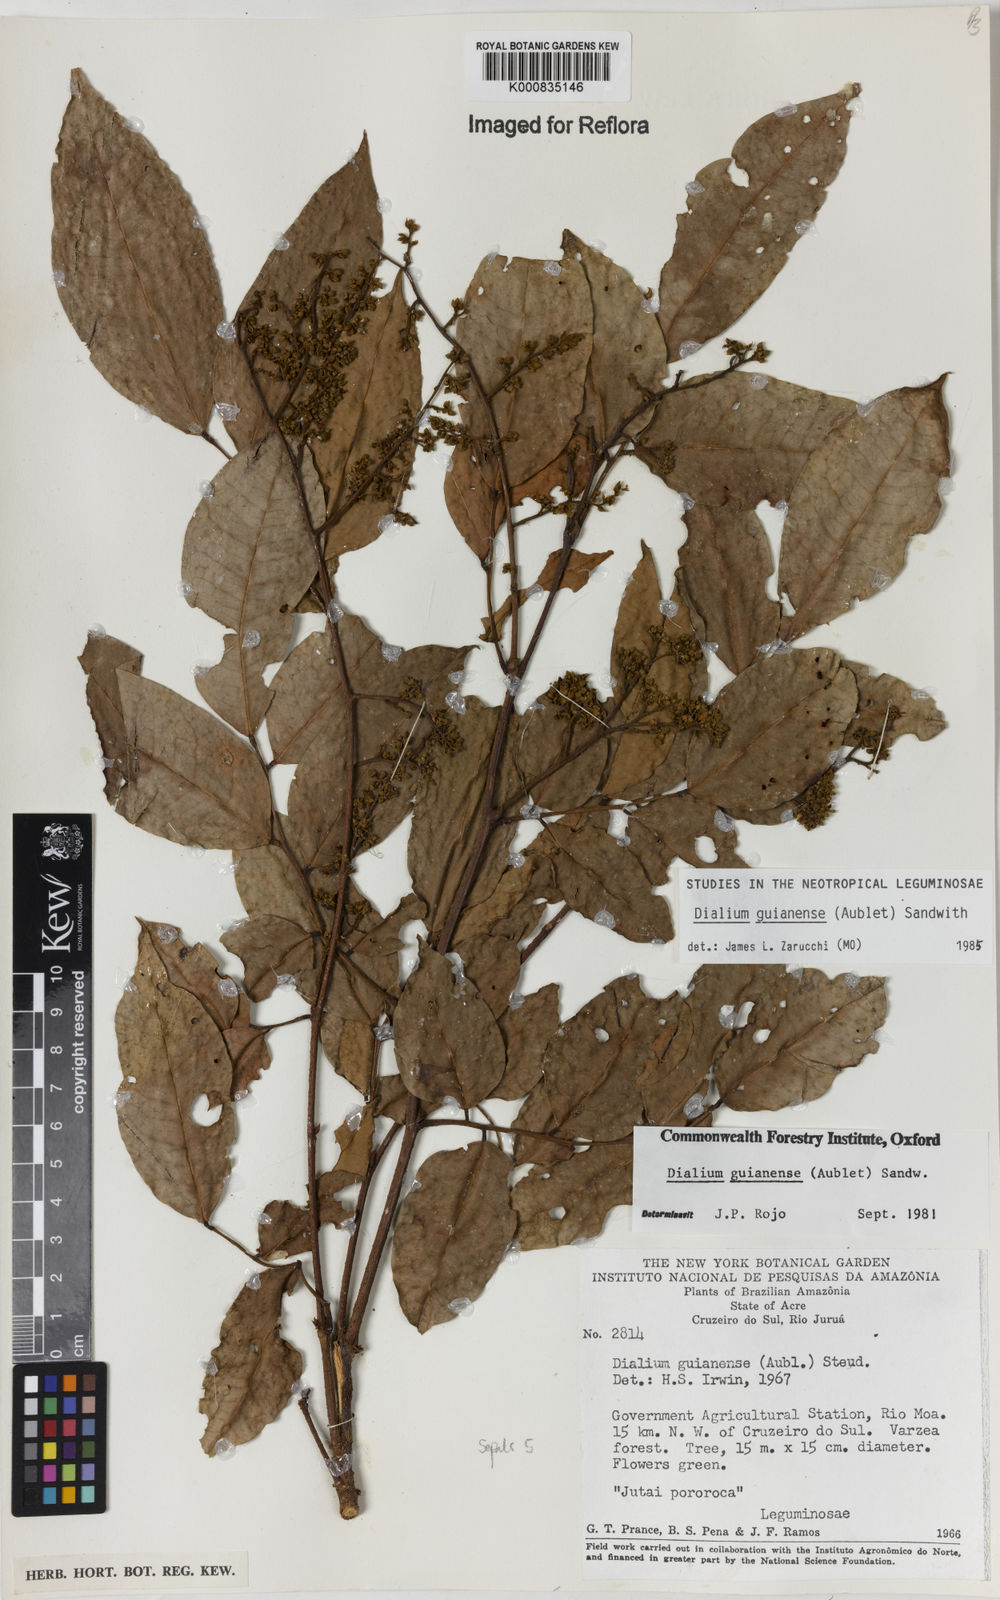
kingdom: Plantae
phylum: Tracheophyta
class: Magnoliopsida
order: Fabales
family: Fabaceae
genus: Dialium
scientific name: Dialium guianense
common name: Ironwood
